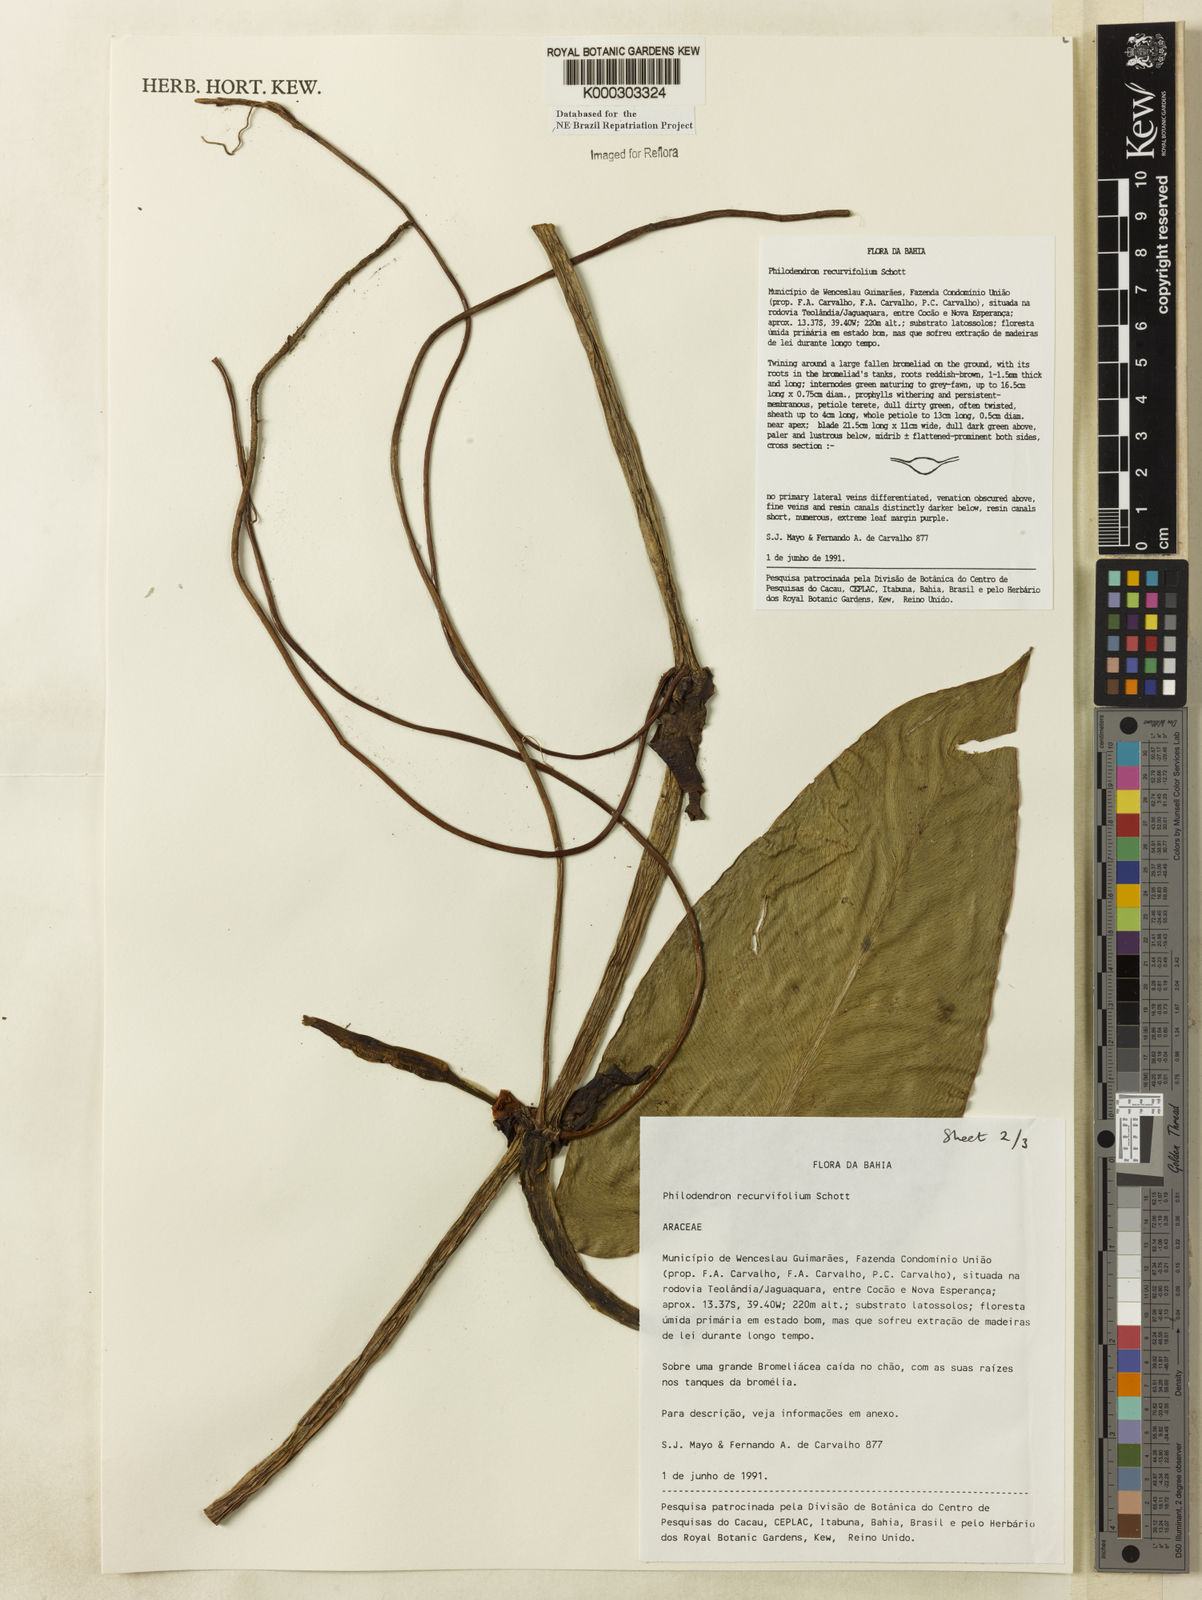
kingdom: Plantae
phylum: Tracheophyta
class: Liliopsida
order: Alismatales
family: Araceae
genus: Philodendron
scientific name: Philodendron recurvifolium
